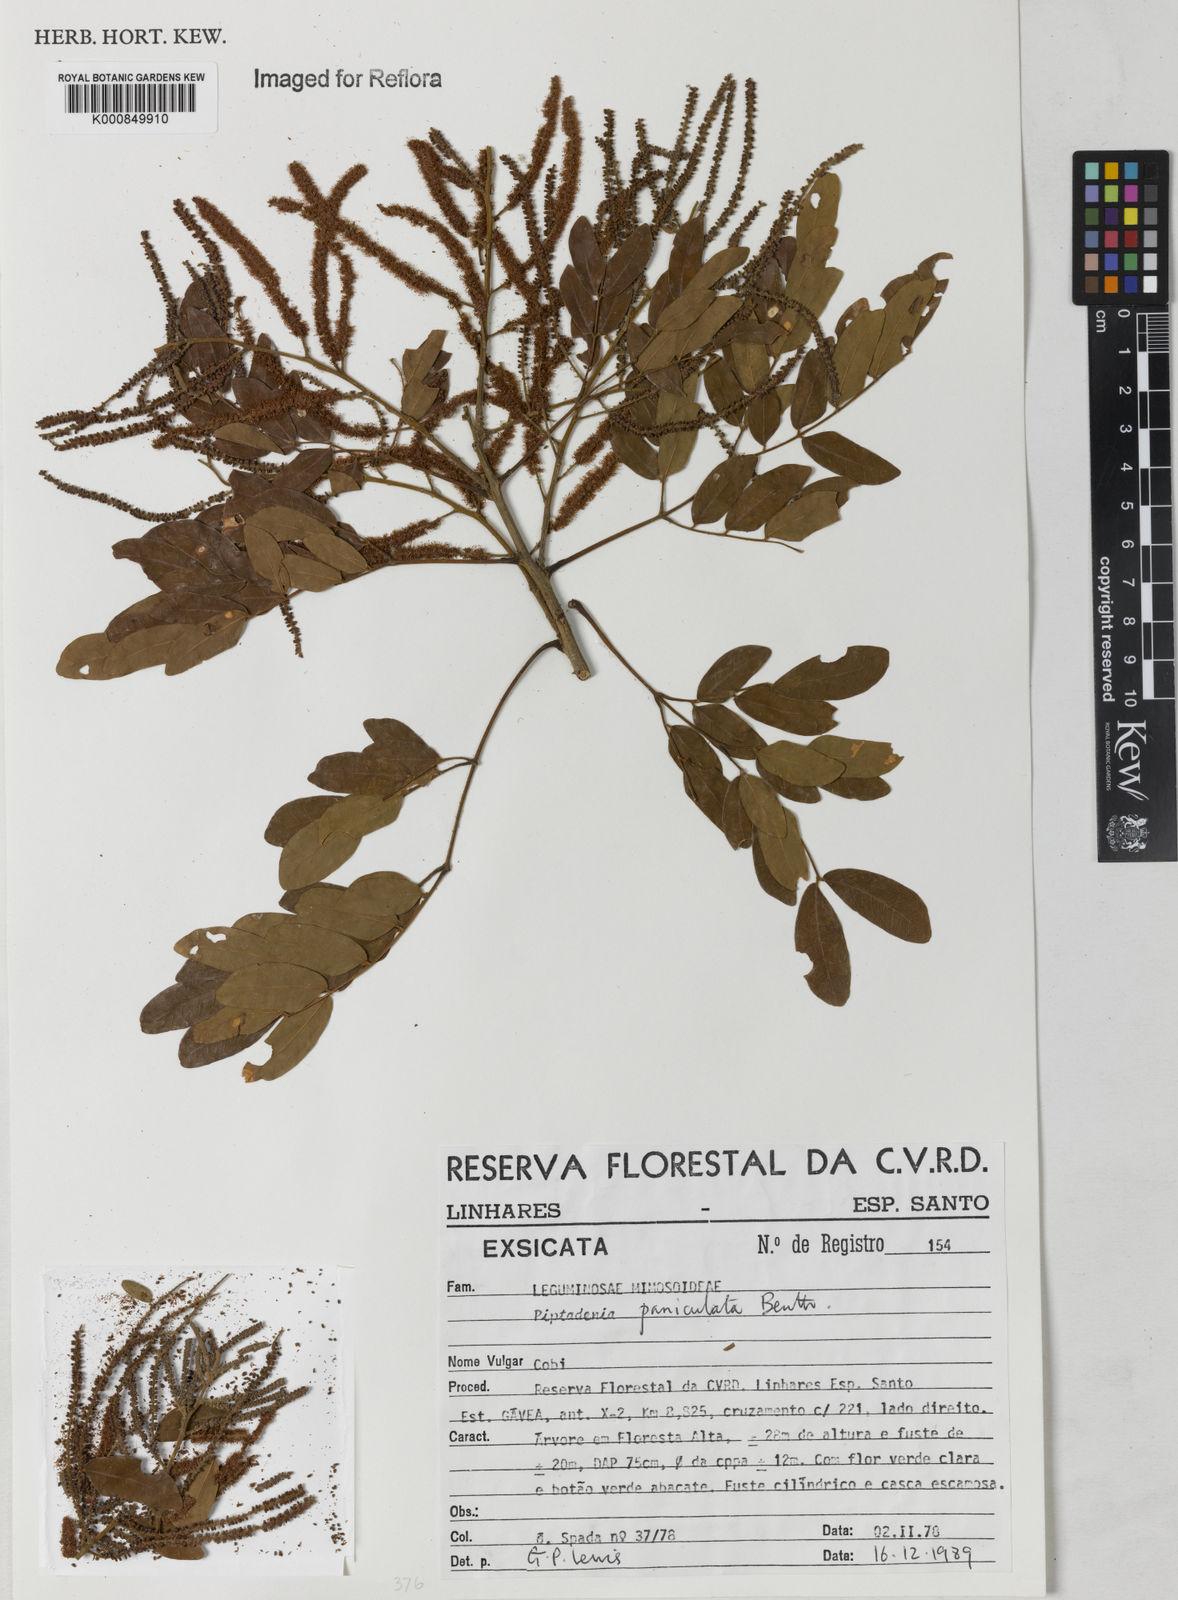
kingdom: Plantae
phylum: Tracheophyta
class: Magnoliopsida
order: Fabales
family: Fabaceae
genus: Piptadenia
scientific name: Piptadenia paniculata
